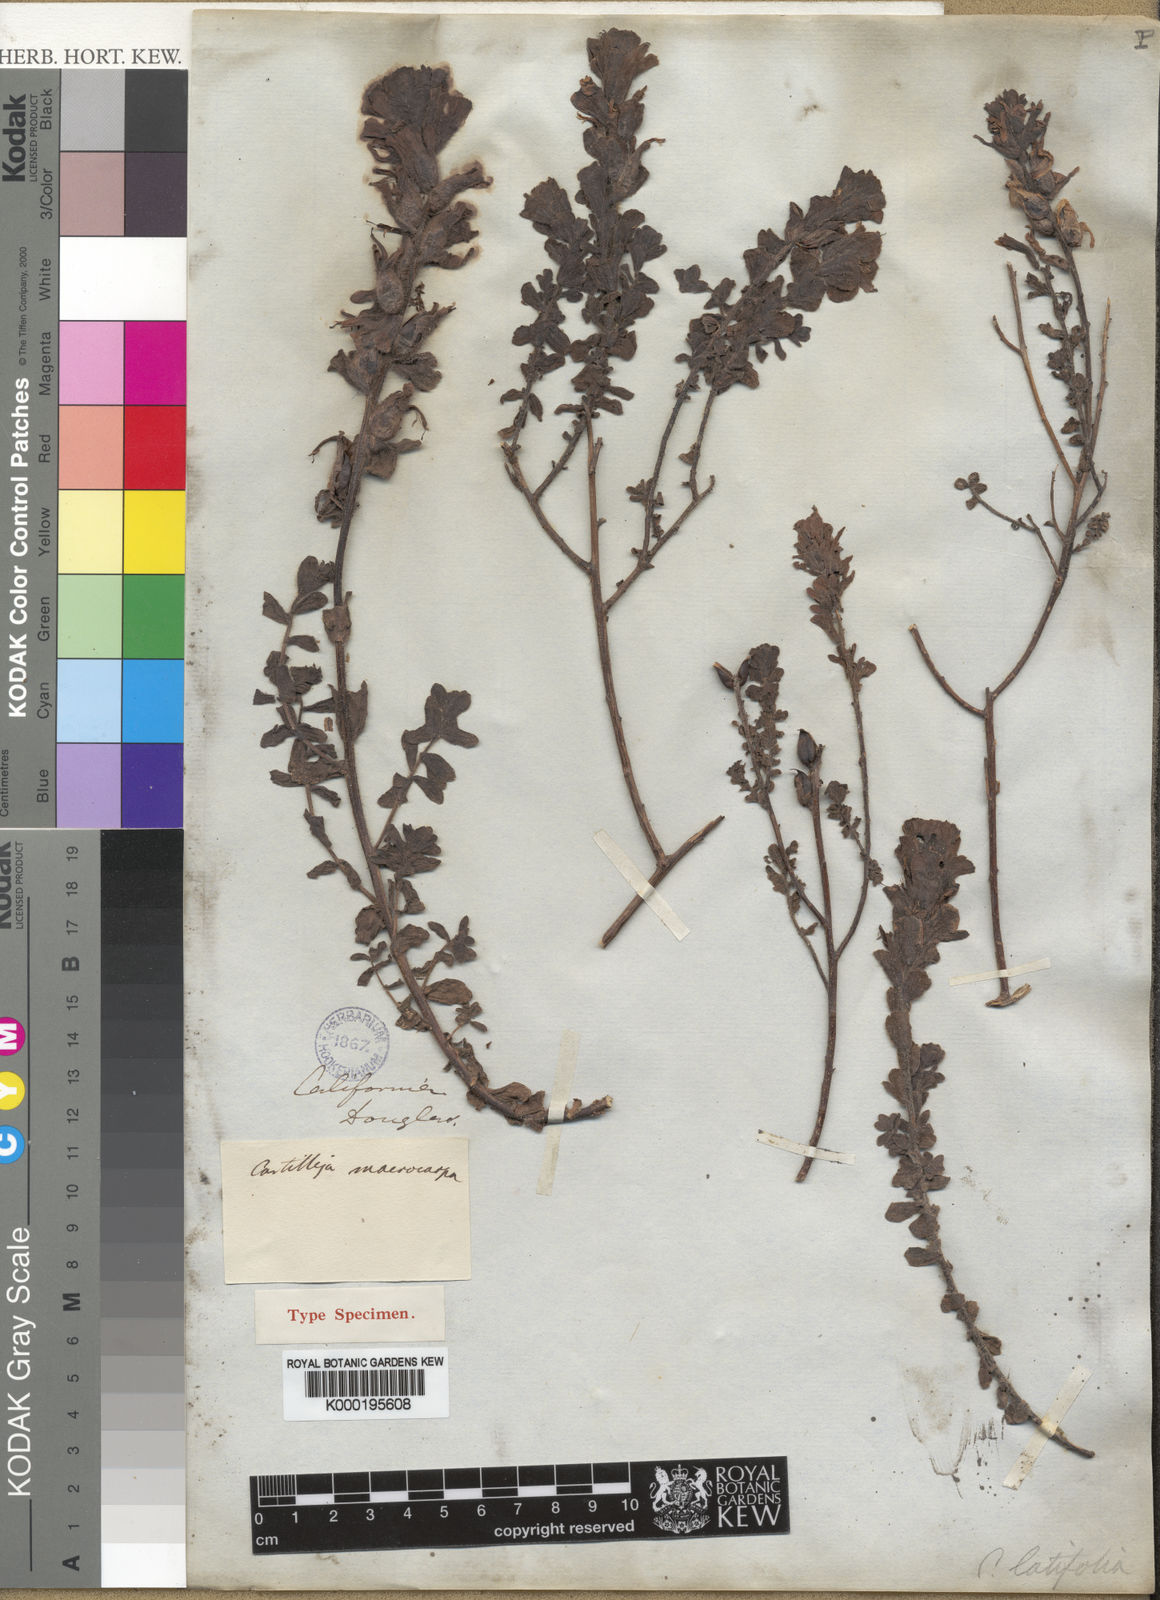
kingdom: Plantae
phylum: Tracheophyta
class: Magnoliopsida
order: Lamiales
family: Orobanchaceae
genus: Castilleja
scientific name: Castilleja latifolia
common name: Monterey indian paintbrush
